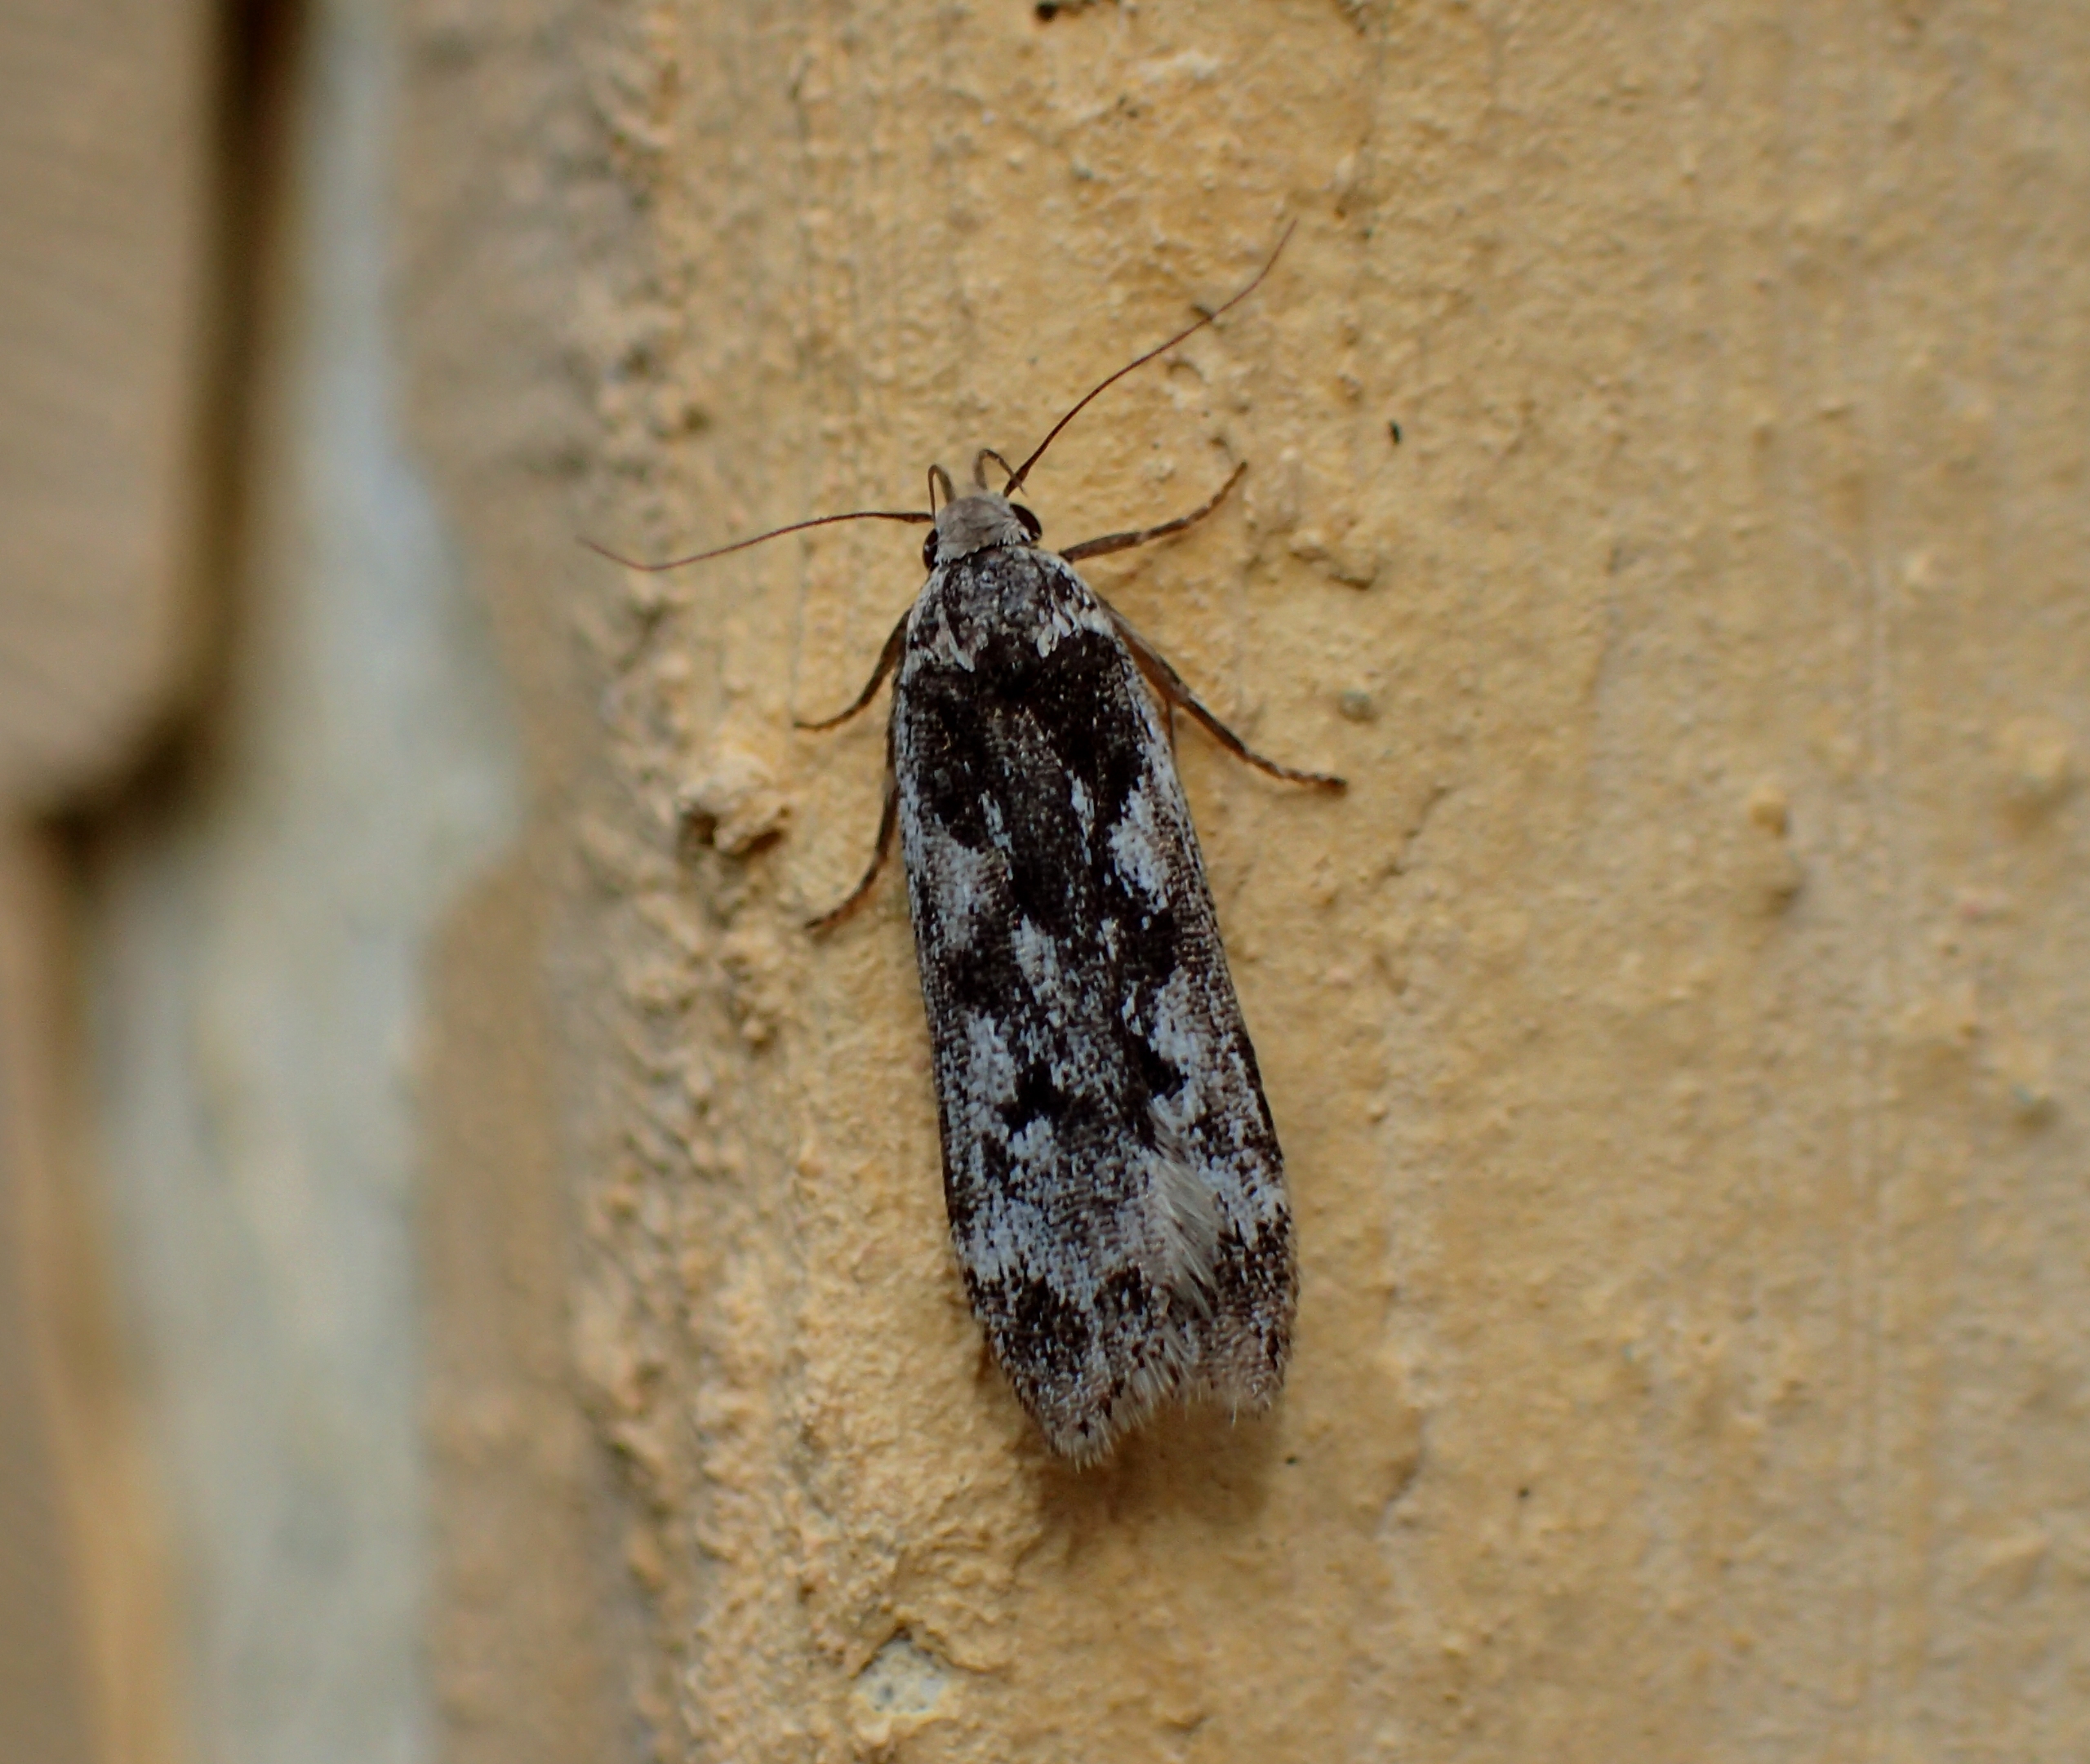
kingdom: Animalia
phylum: Arthropoda
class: Insecta
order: Lepidoptera
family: Gelechiidae
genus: Anacampsis
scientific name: Anacampsis blattariella
